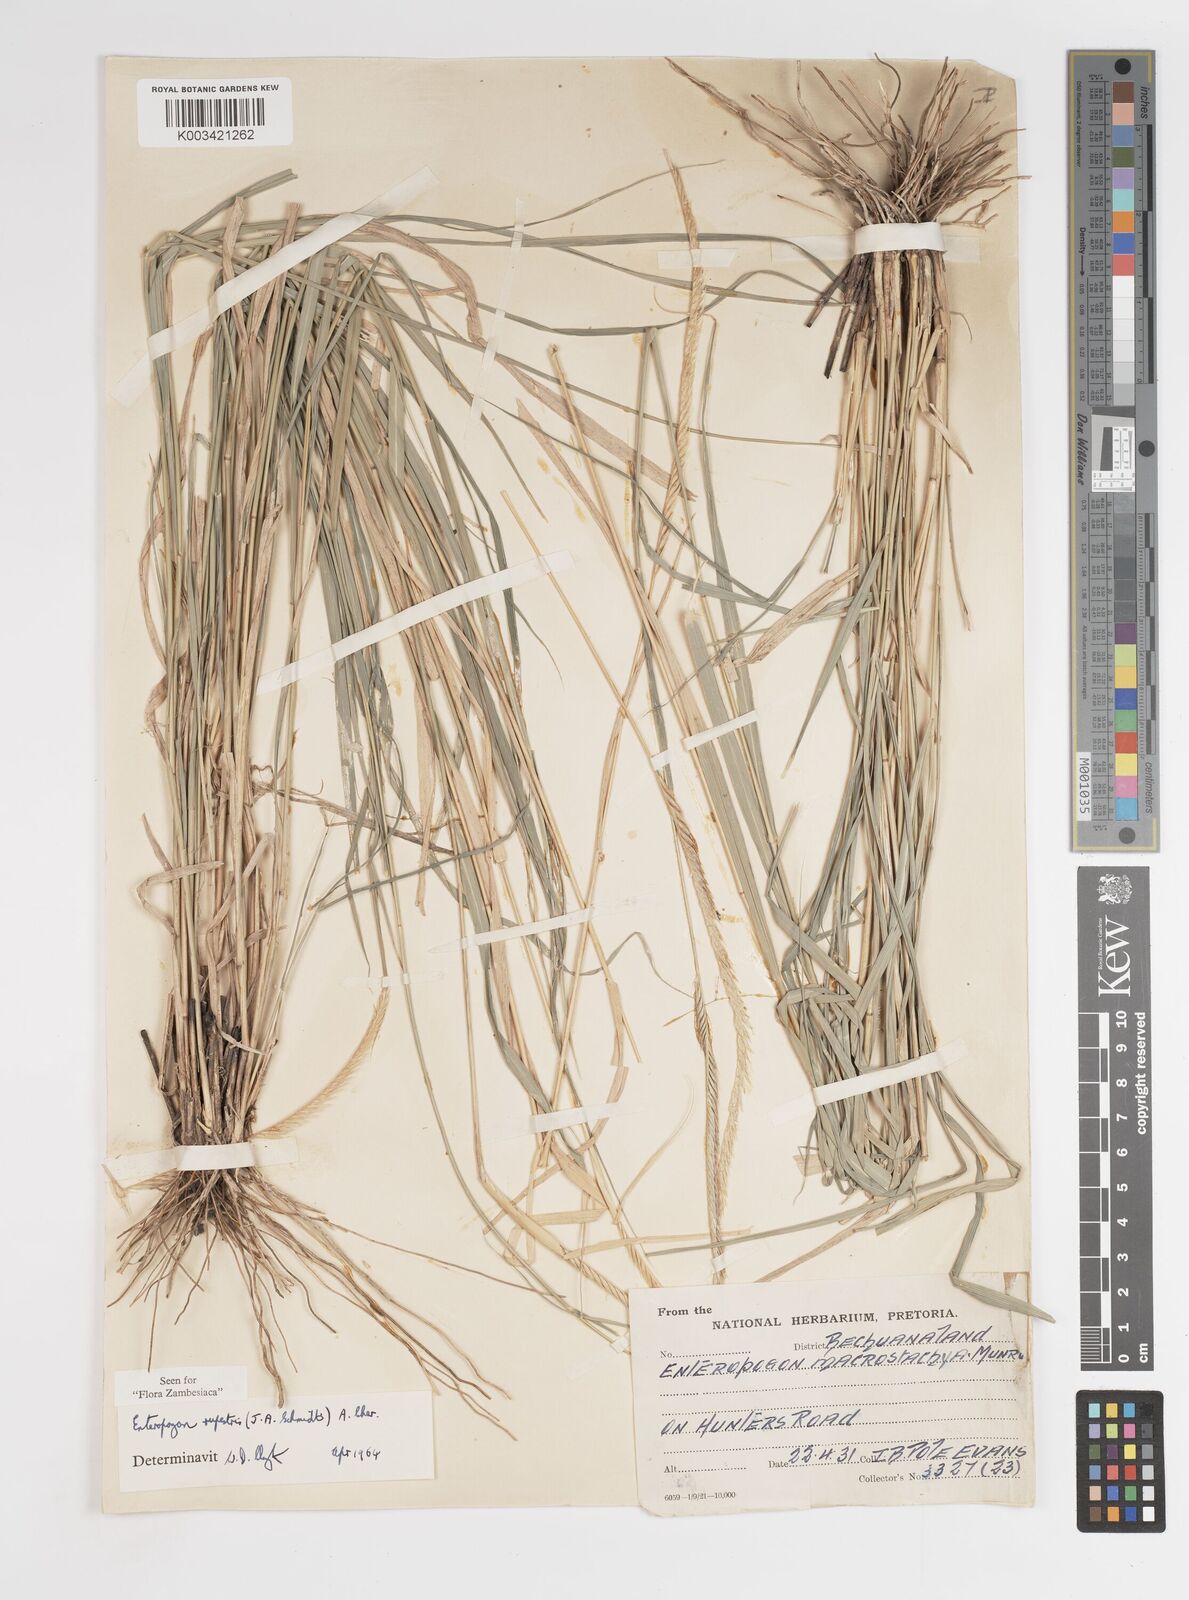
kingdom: Plantae
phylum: Tracheophyta
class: Liliopsida
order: Poales
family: Poaceae
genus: Enteropogon
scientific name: Enteropogon rupestris
